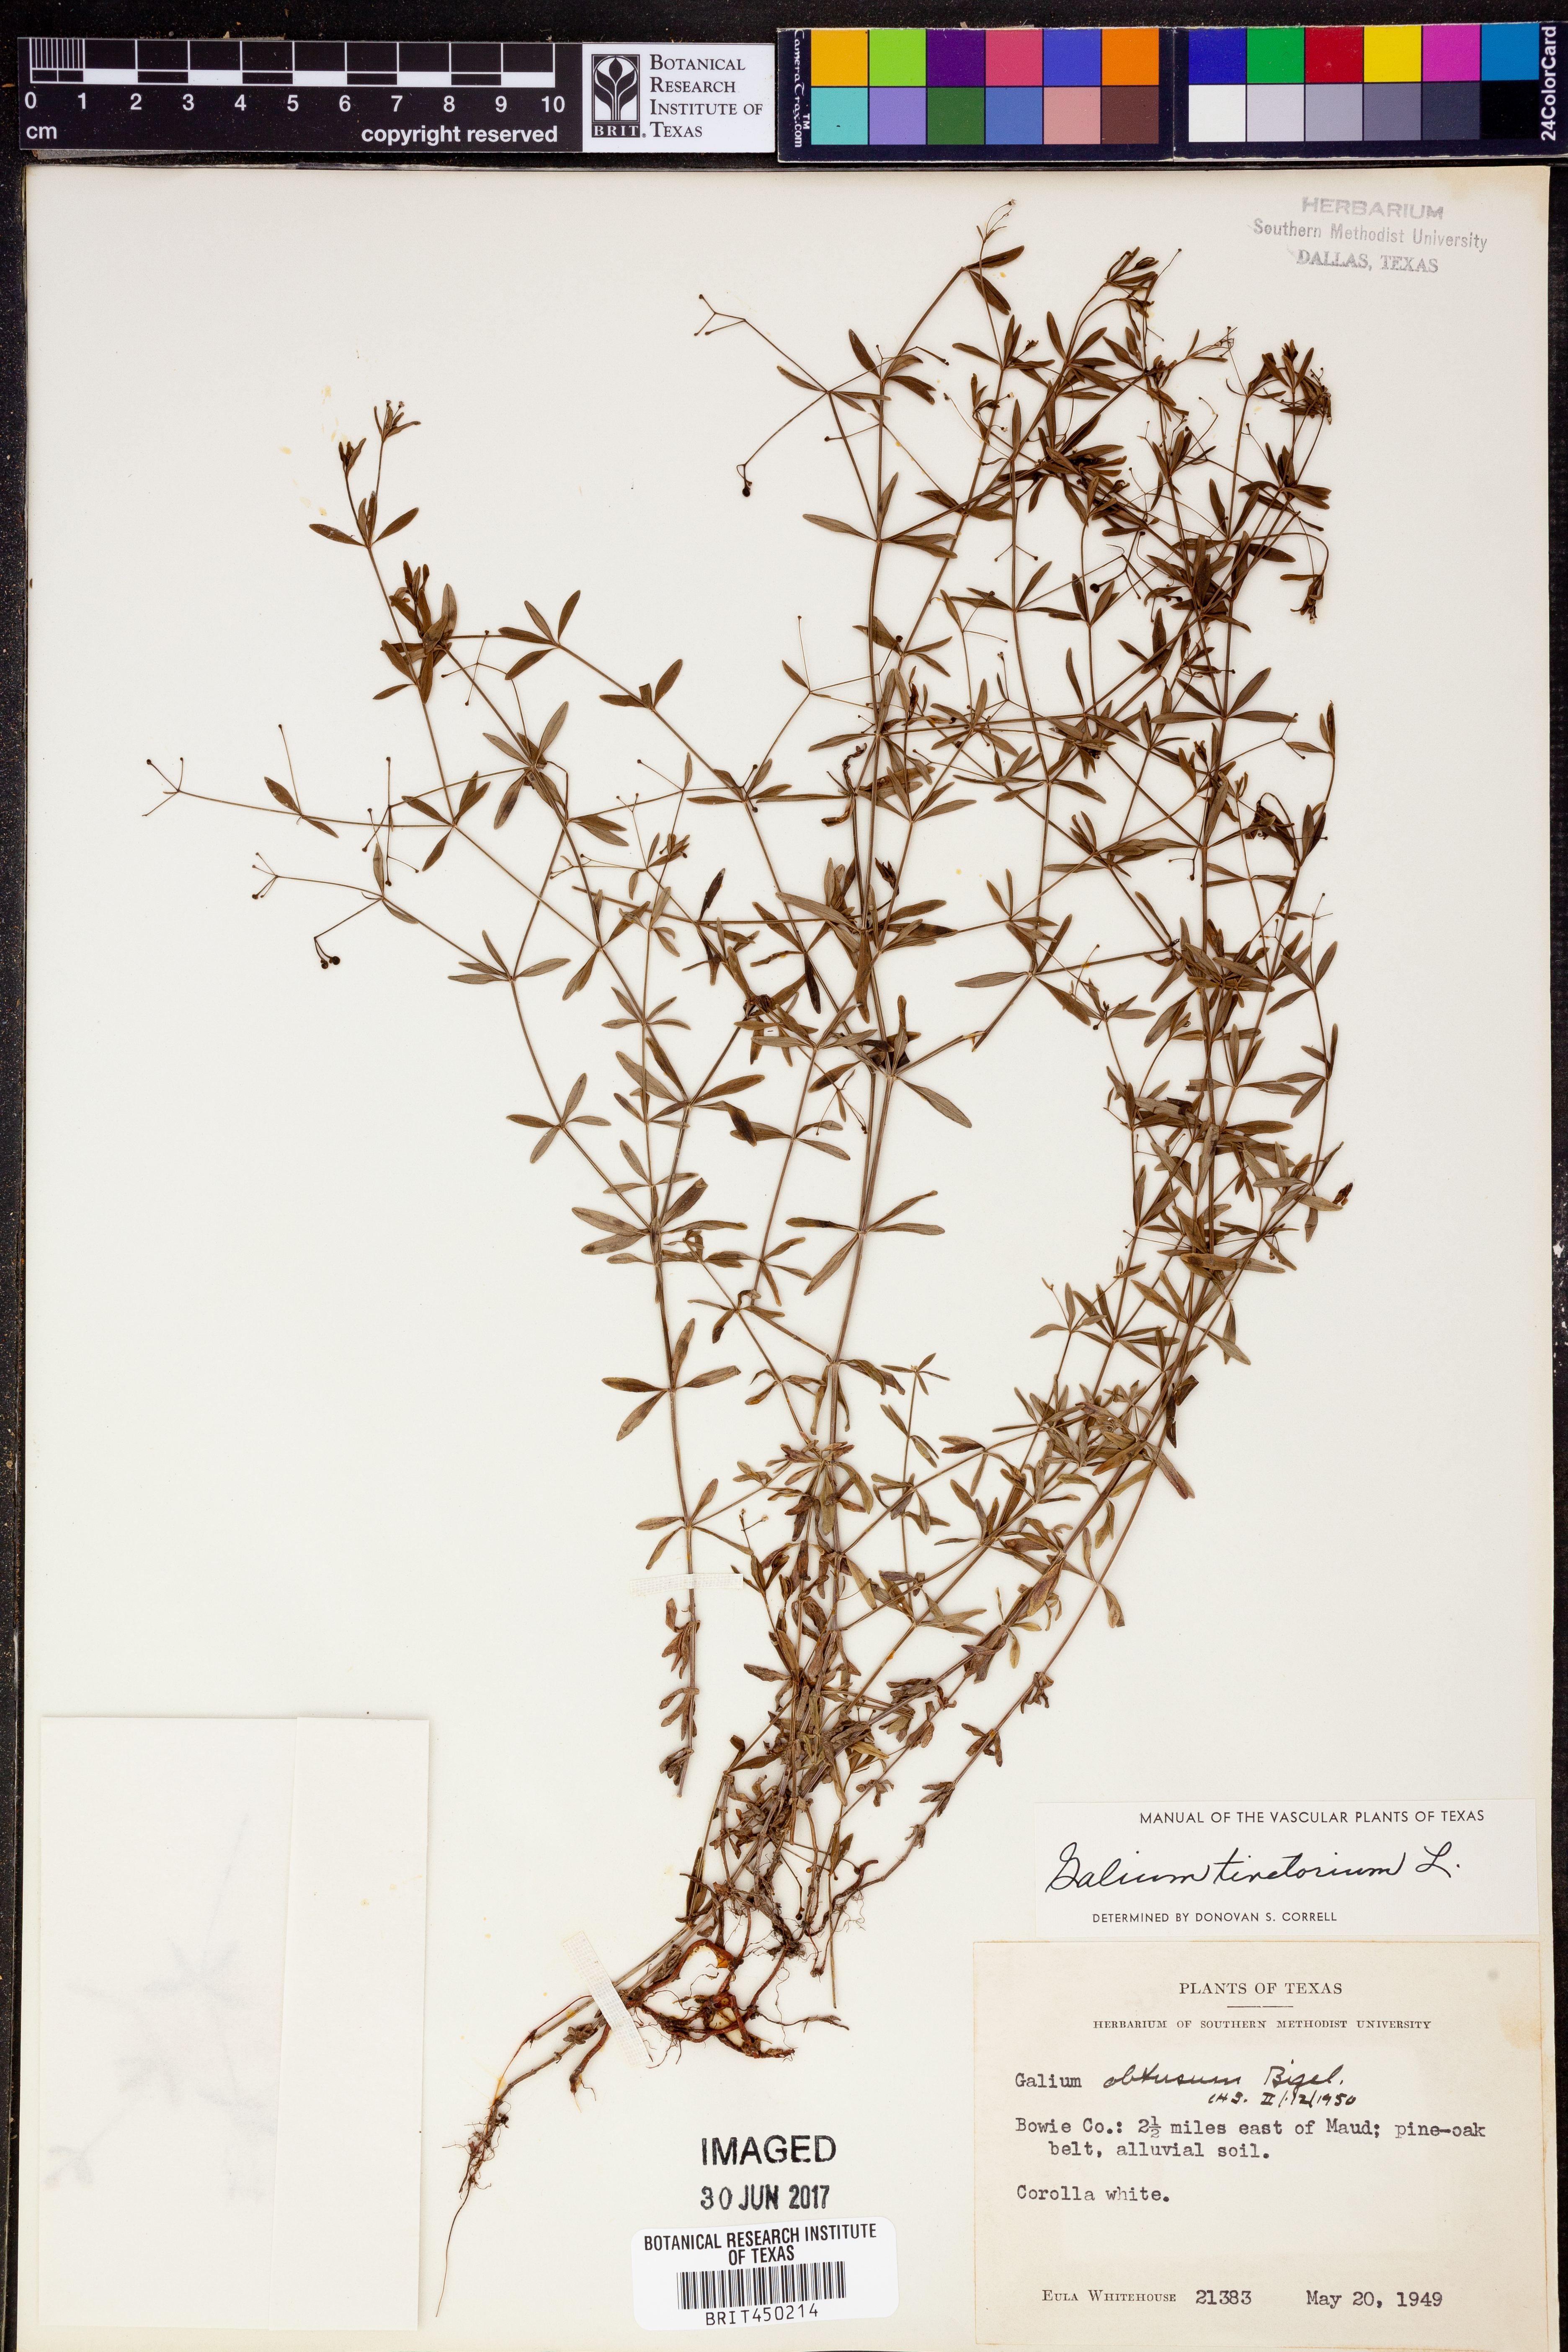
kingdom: Plantae
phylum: Tracheophyta
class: Magnoliopsida
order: Gentianales
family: Rubiaceae
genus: Asperula
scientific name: Asperula tinctoria
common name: Dyer's woodruff
